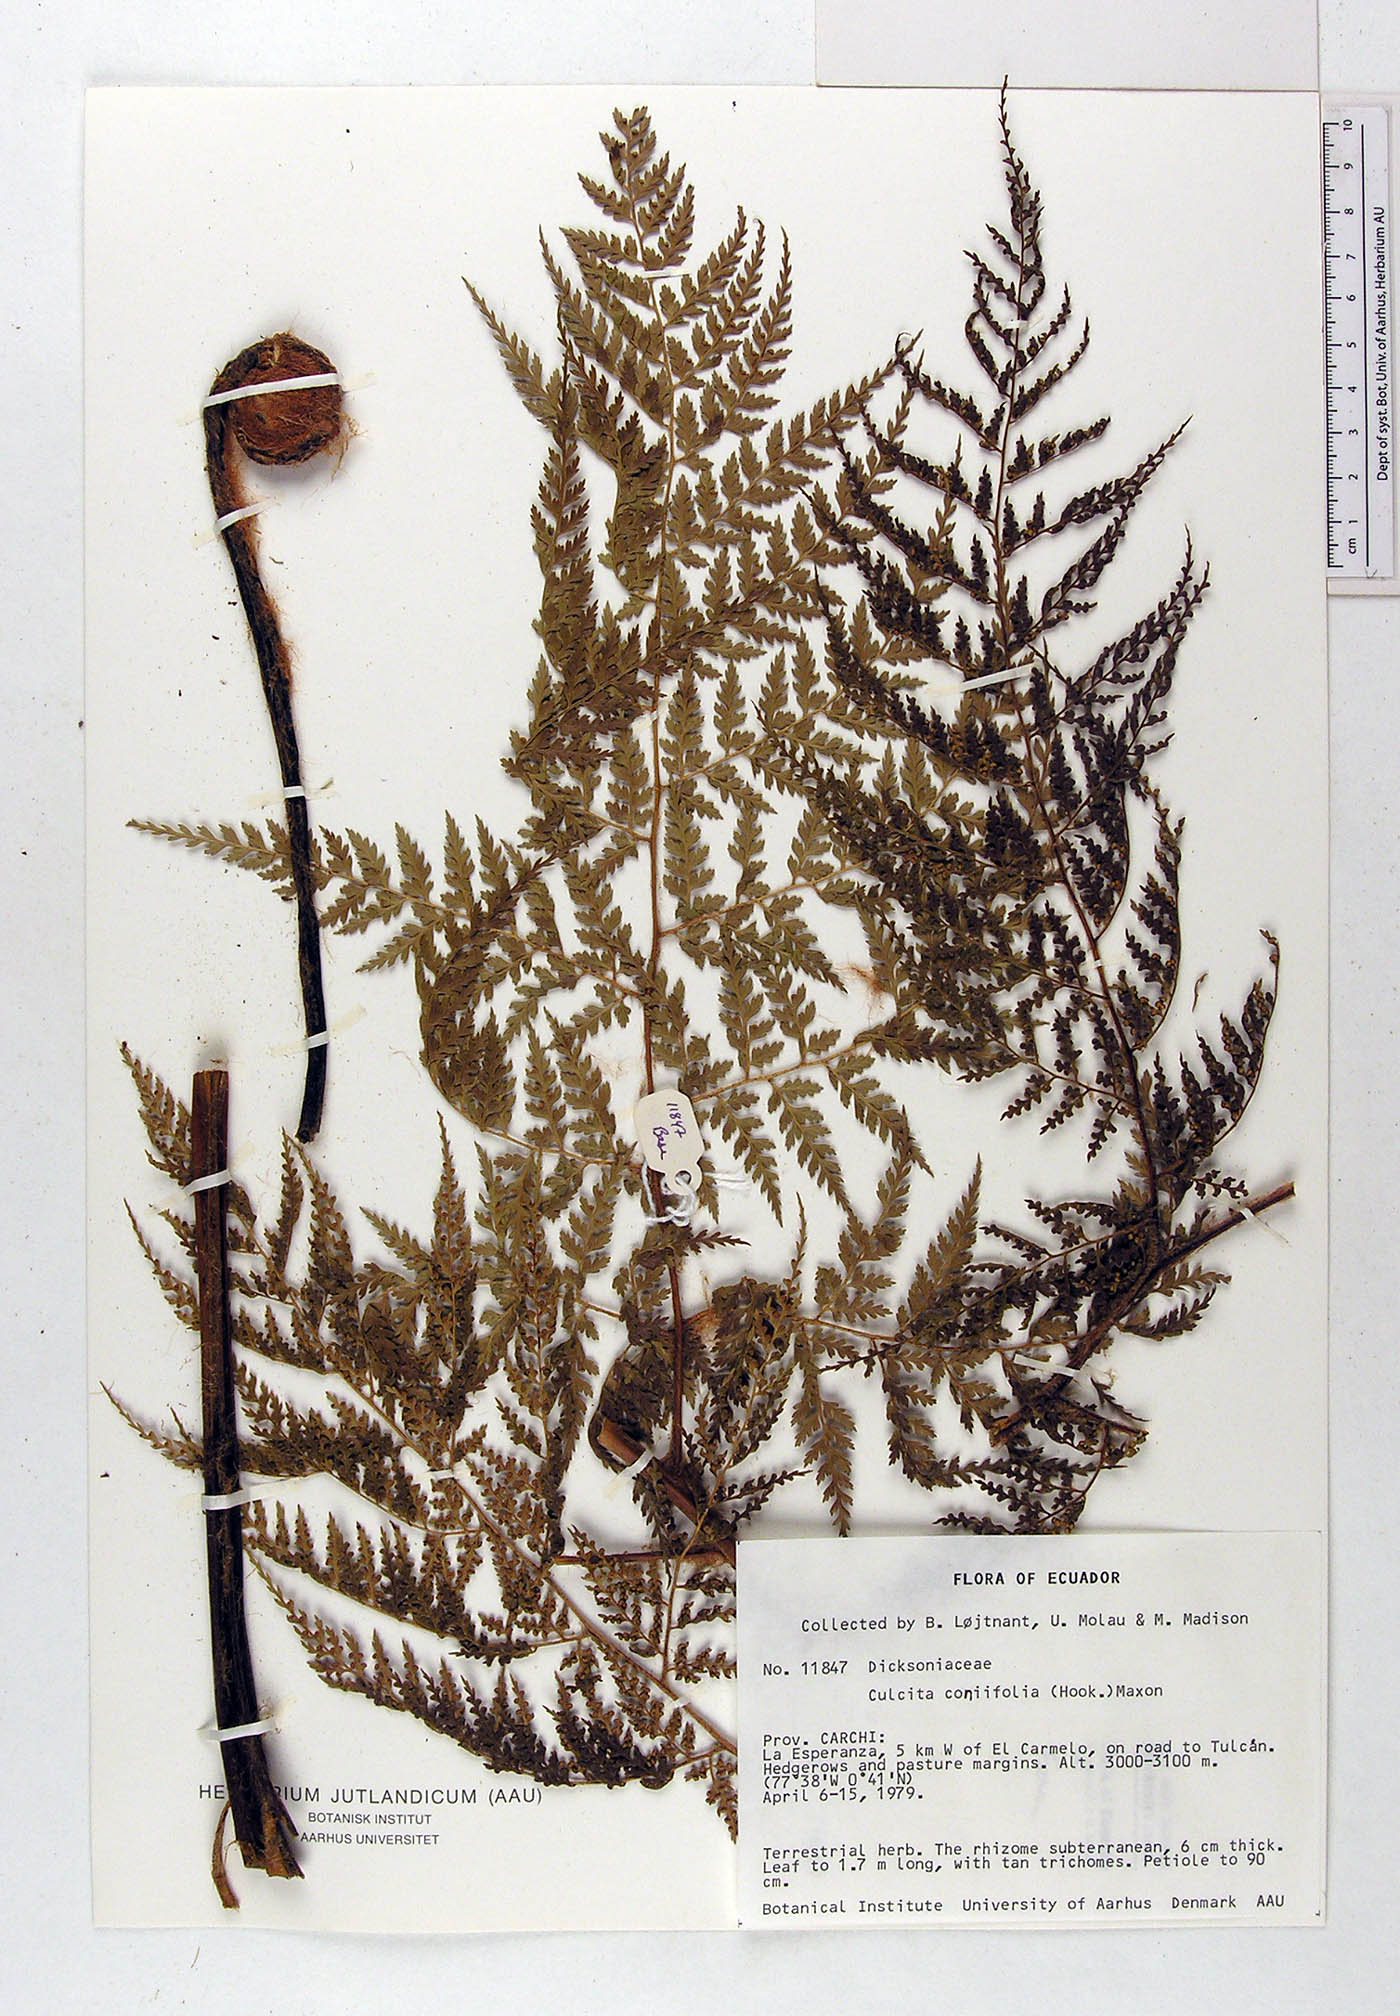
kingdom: Plantae
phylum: Tracheophyta
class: Polypodiopsida
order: Cyatheales
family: Culcitaceae
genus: Culcita
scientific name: Culcita coniifolia
